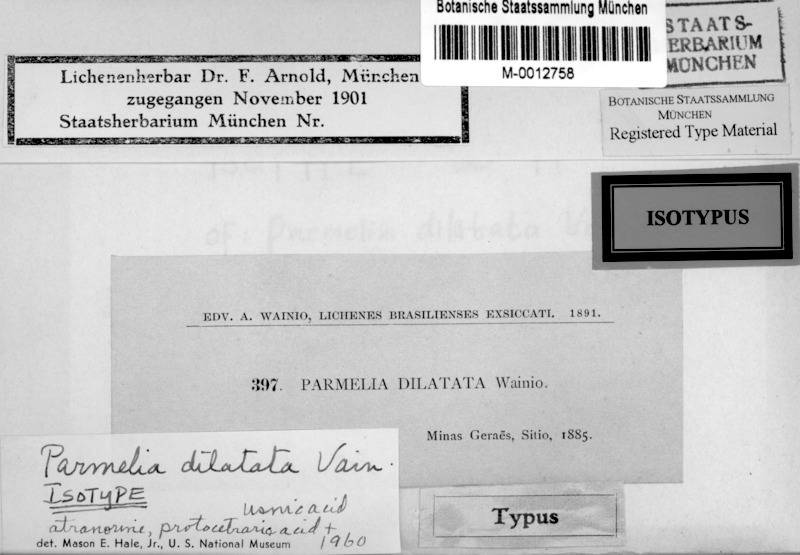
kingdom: Fungi
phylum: Ascomycota
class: Lecanoromycetes
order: Lecanorales
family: Parmeliaceae
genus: Parmotrema
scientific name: Parmotrema dilatatum
